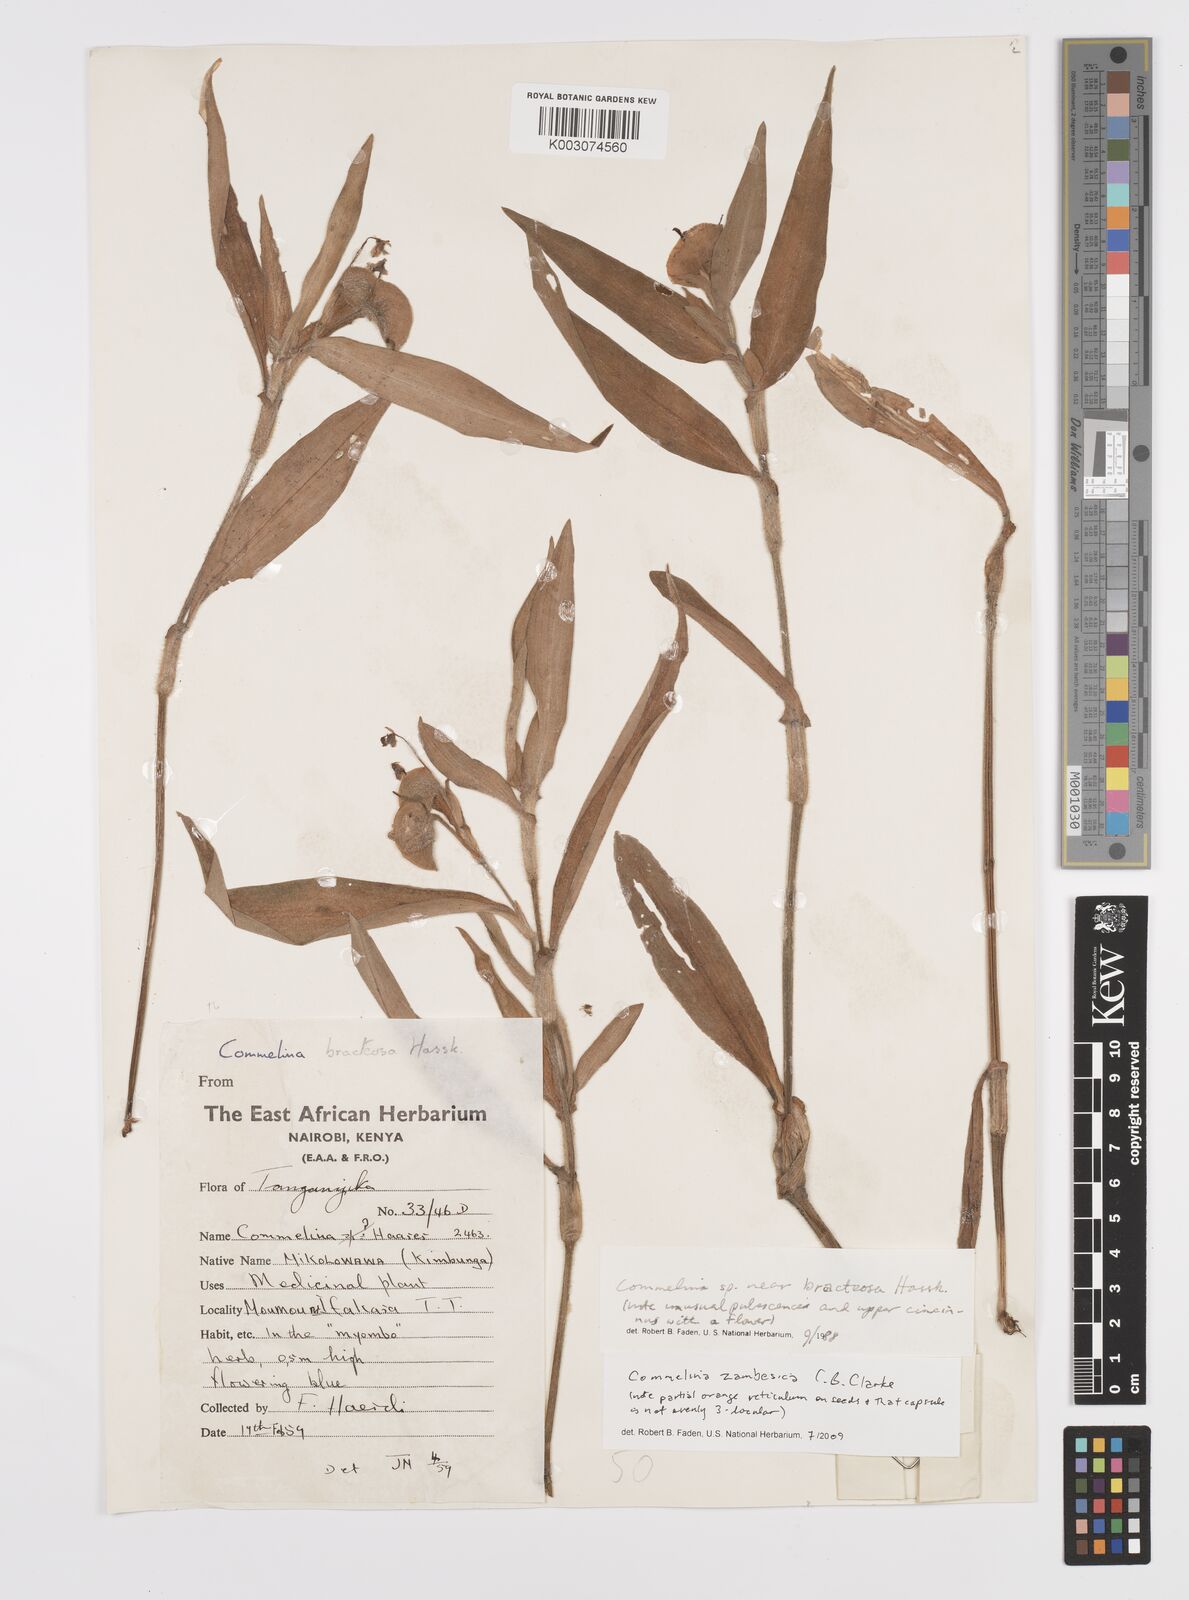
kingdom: Plantae
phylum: Tracheophyta
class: Liliopsida
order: Commelinales
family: Commelinaceae
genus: Commelina
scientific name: Commelina zambesica
